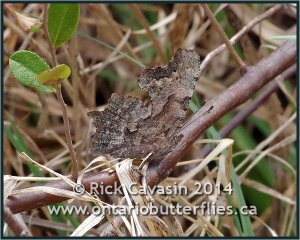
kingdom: Animalia
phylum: Arthropoda
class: Insecta
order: Lepidoptera
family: Nymphalidae
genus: Polygonia
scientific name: Polygonia faunus
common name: Green Comma
